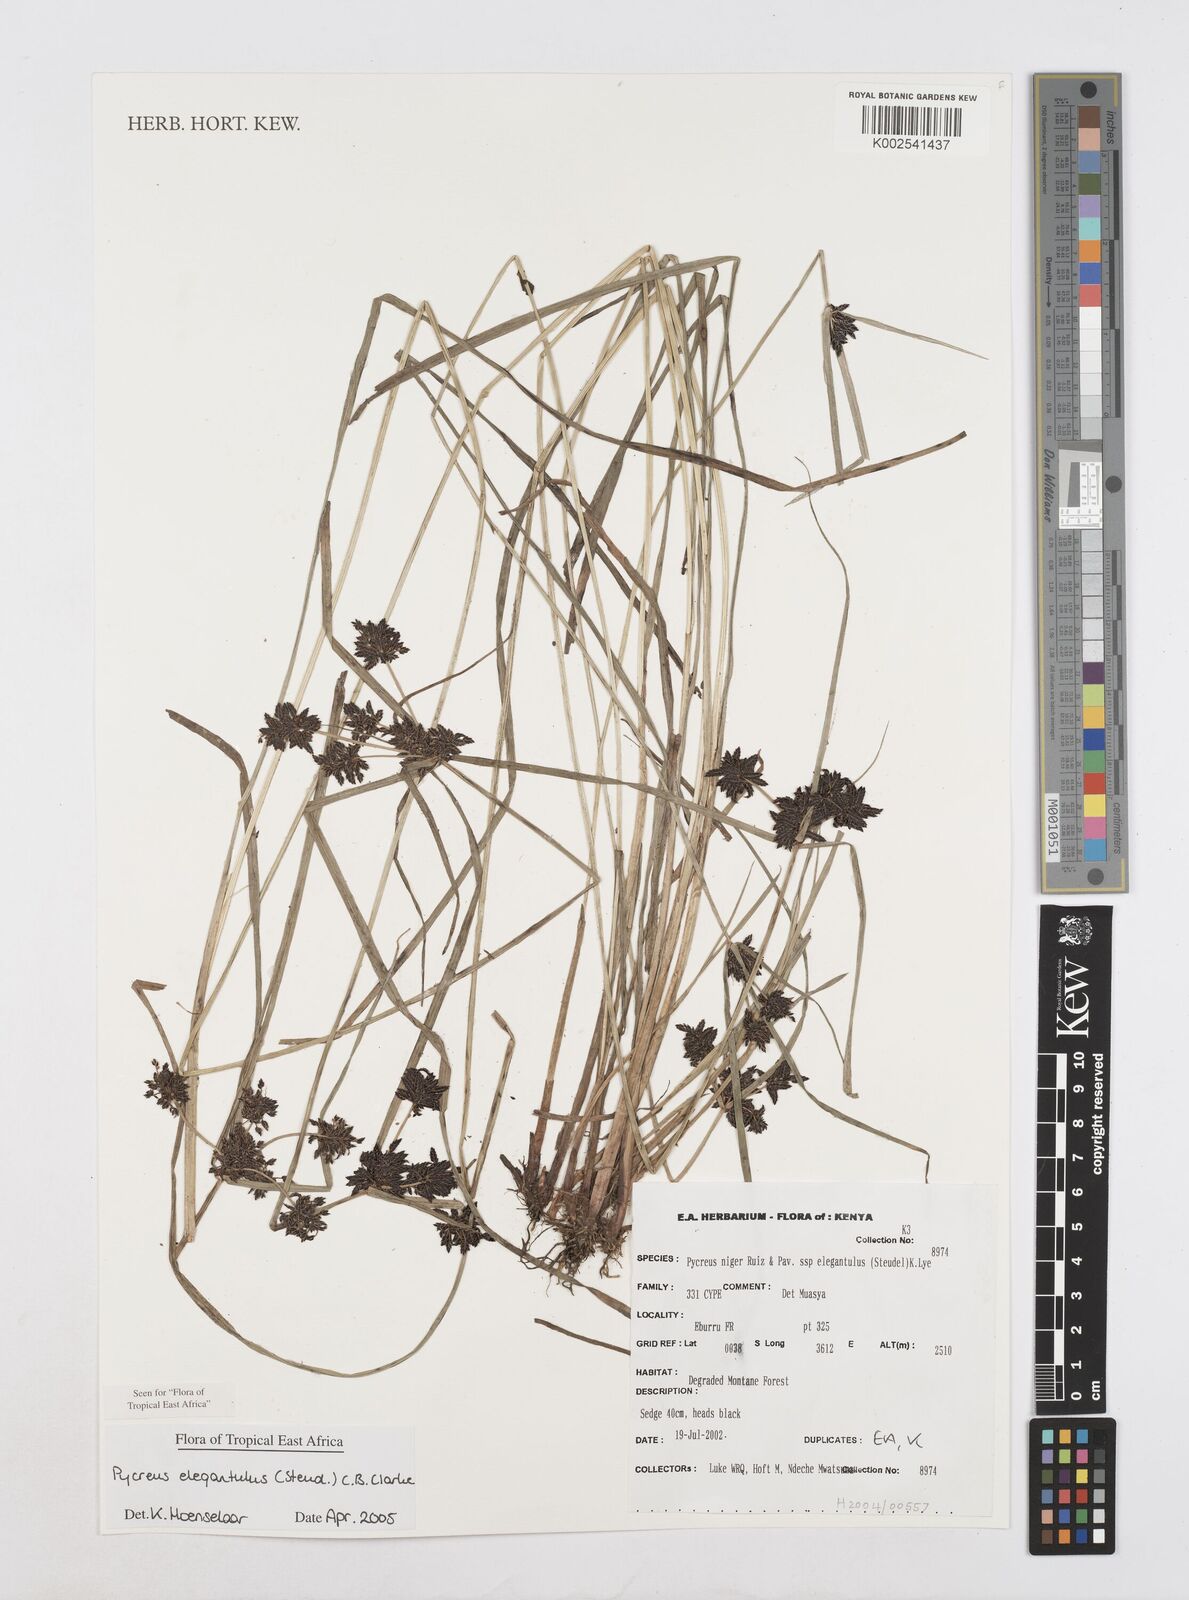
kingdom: Plantae
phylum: Tracheophyta
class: Liliopsida
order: Poales
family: Cyperaceae
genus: Cyperus
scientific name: Cyperus elegantulus
